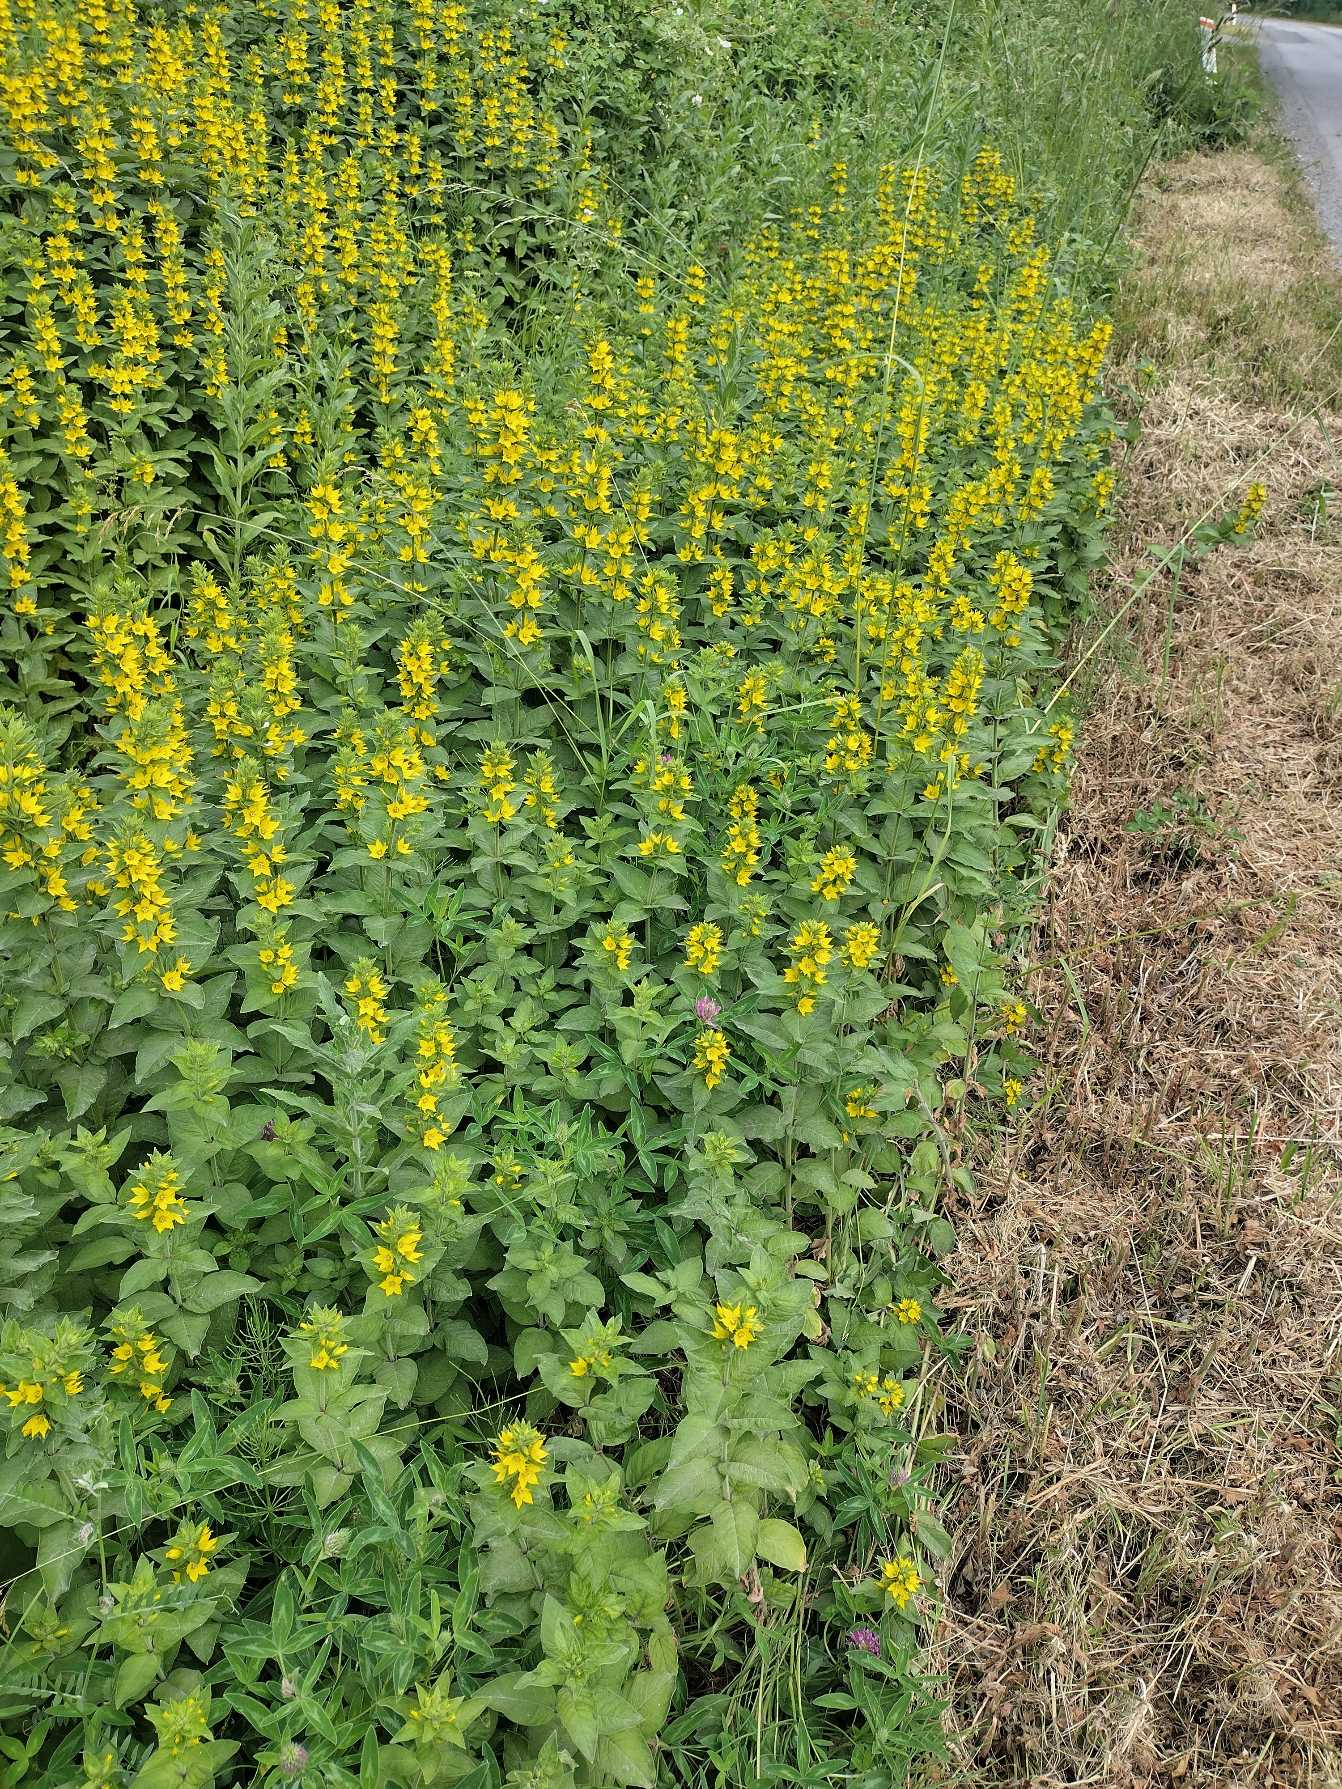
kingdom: Plantae
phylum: Tracheophyta
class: Magnoliopsida
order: Ericales
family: Primulaceae
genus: Lysimachia
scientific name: Lysimachia punctata
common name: Prikbladet fredløs
